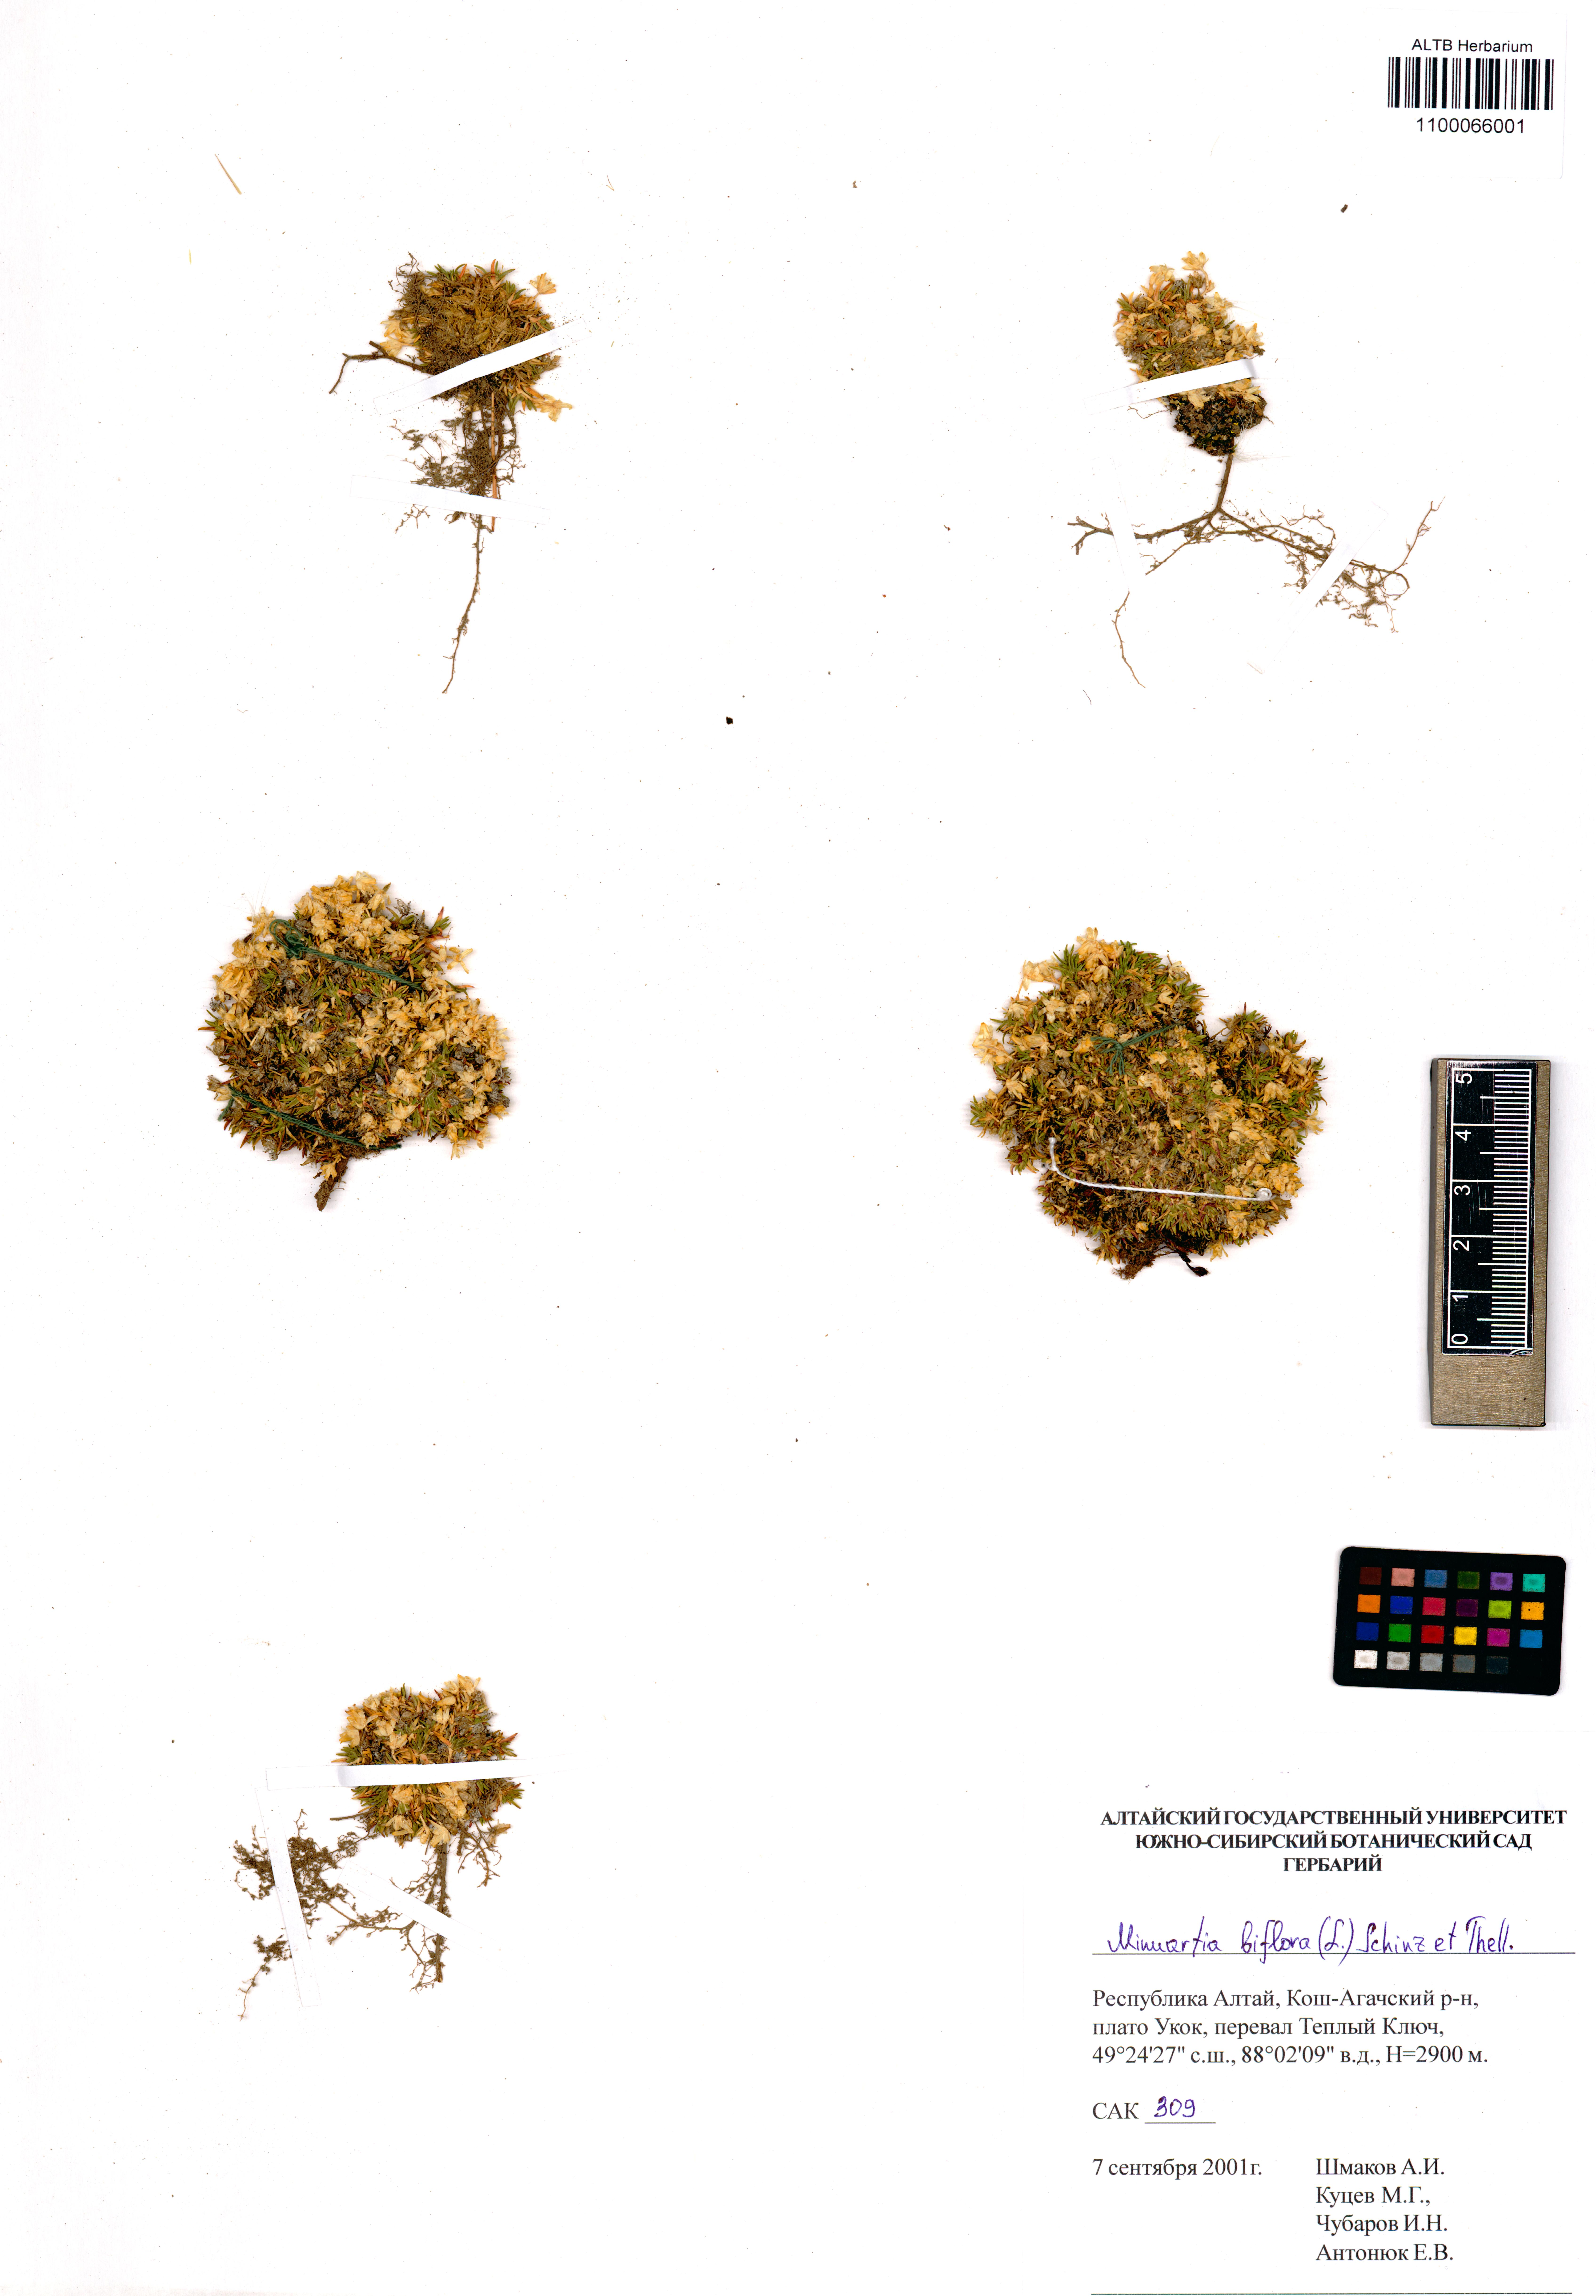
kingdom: Plantae
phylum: Tracheophyta
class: Magnoliopsida
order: Caryophyllales
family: Caryophyllaceae
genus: Cherleria
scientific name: Cherleria biflora
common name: Mountain sandwort
